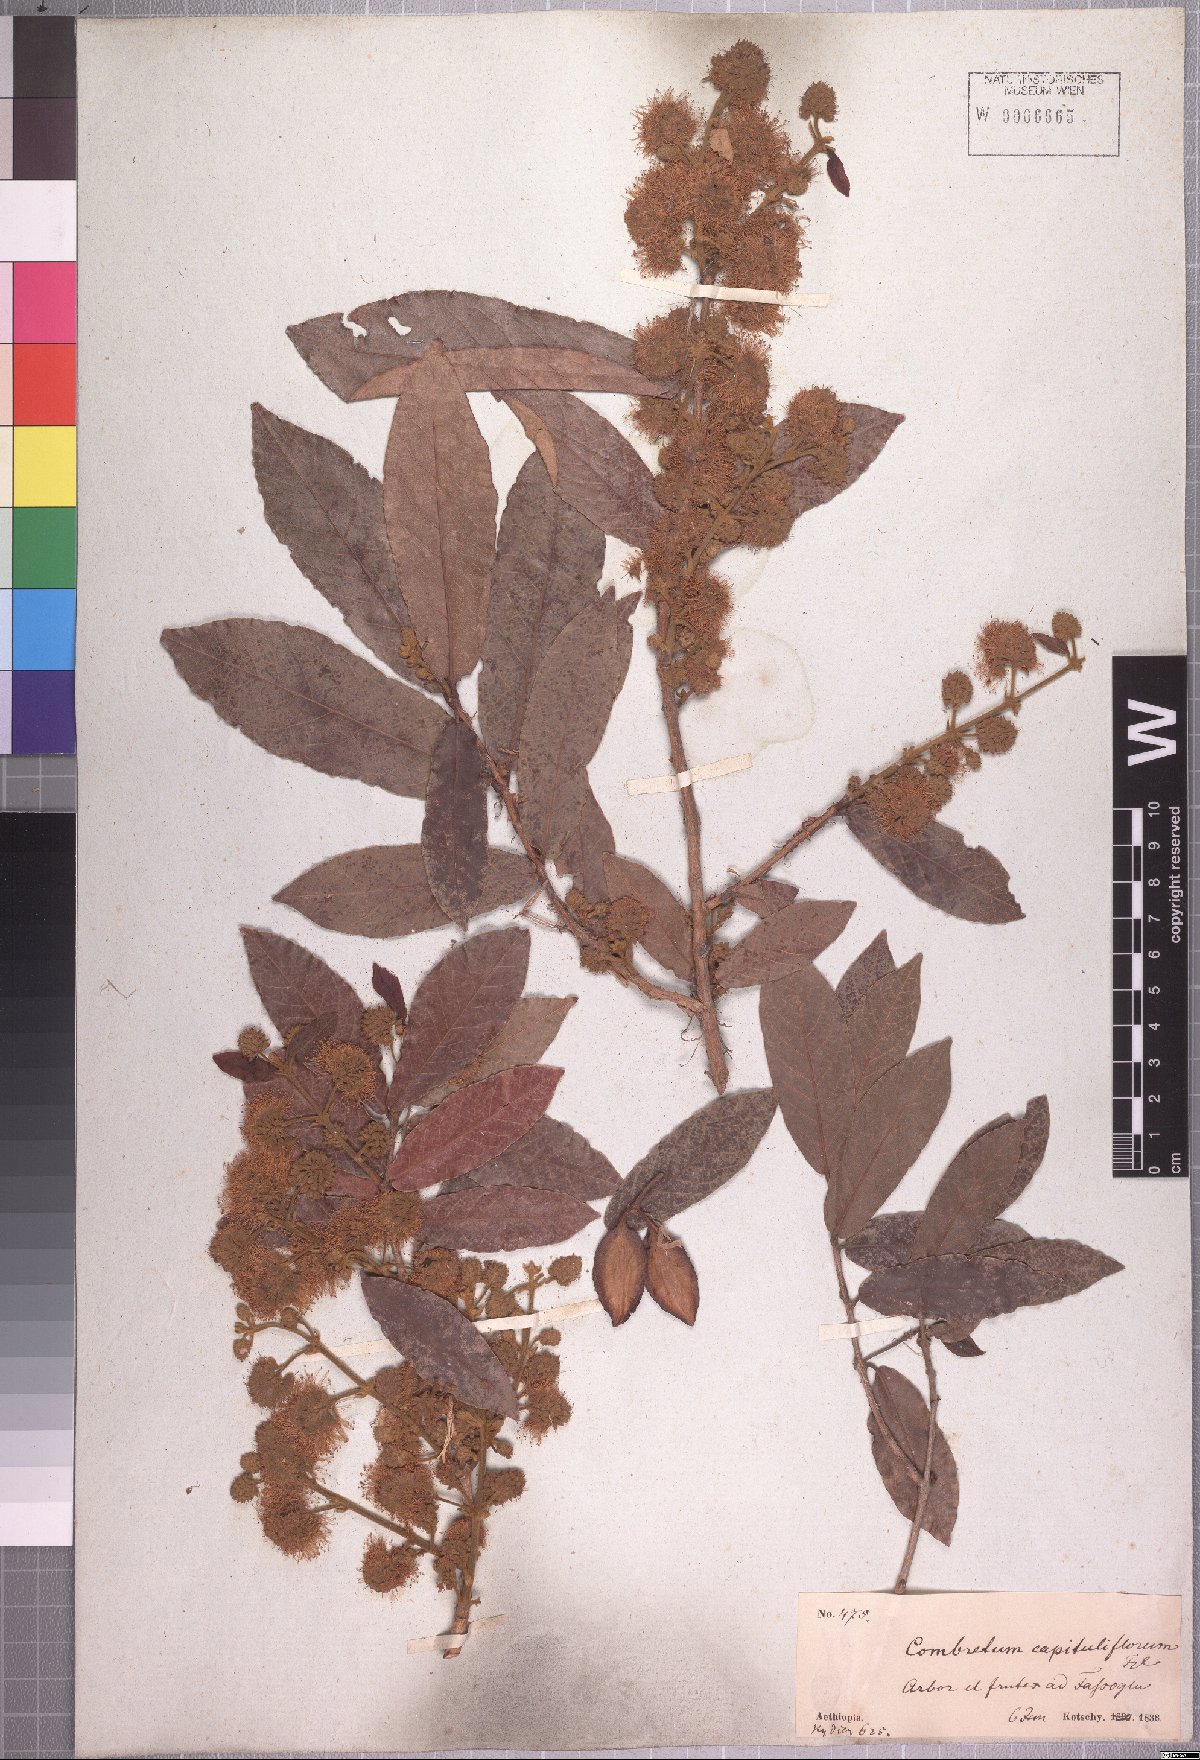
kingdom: Plantae
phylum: Tracheophyta
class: Magnoliopsida
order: Myrtales
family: Combretaceae
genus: Combretum
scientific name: Combretum capituliflorum
